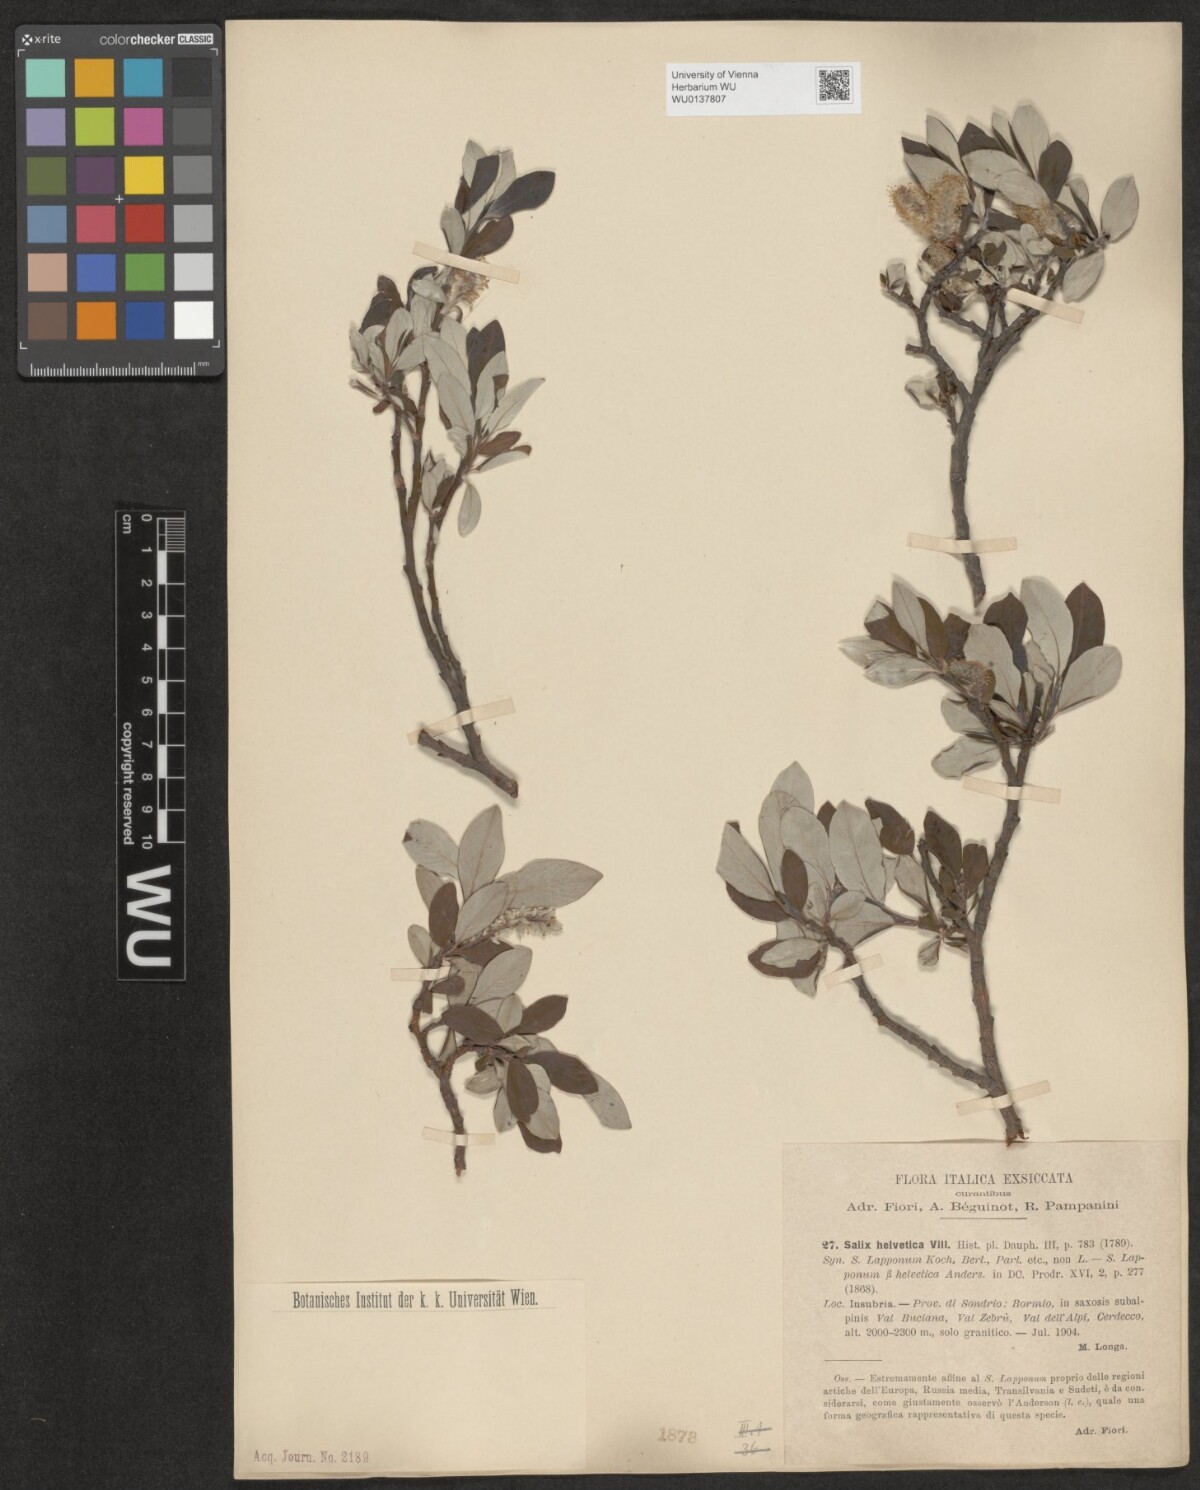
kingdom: Plantae
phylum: Tracheophyta
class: Magnoliopsida
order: Malpighiales
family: Salicaceae
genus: Salix
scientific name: Salix helvetica
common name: Swiss willow
